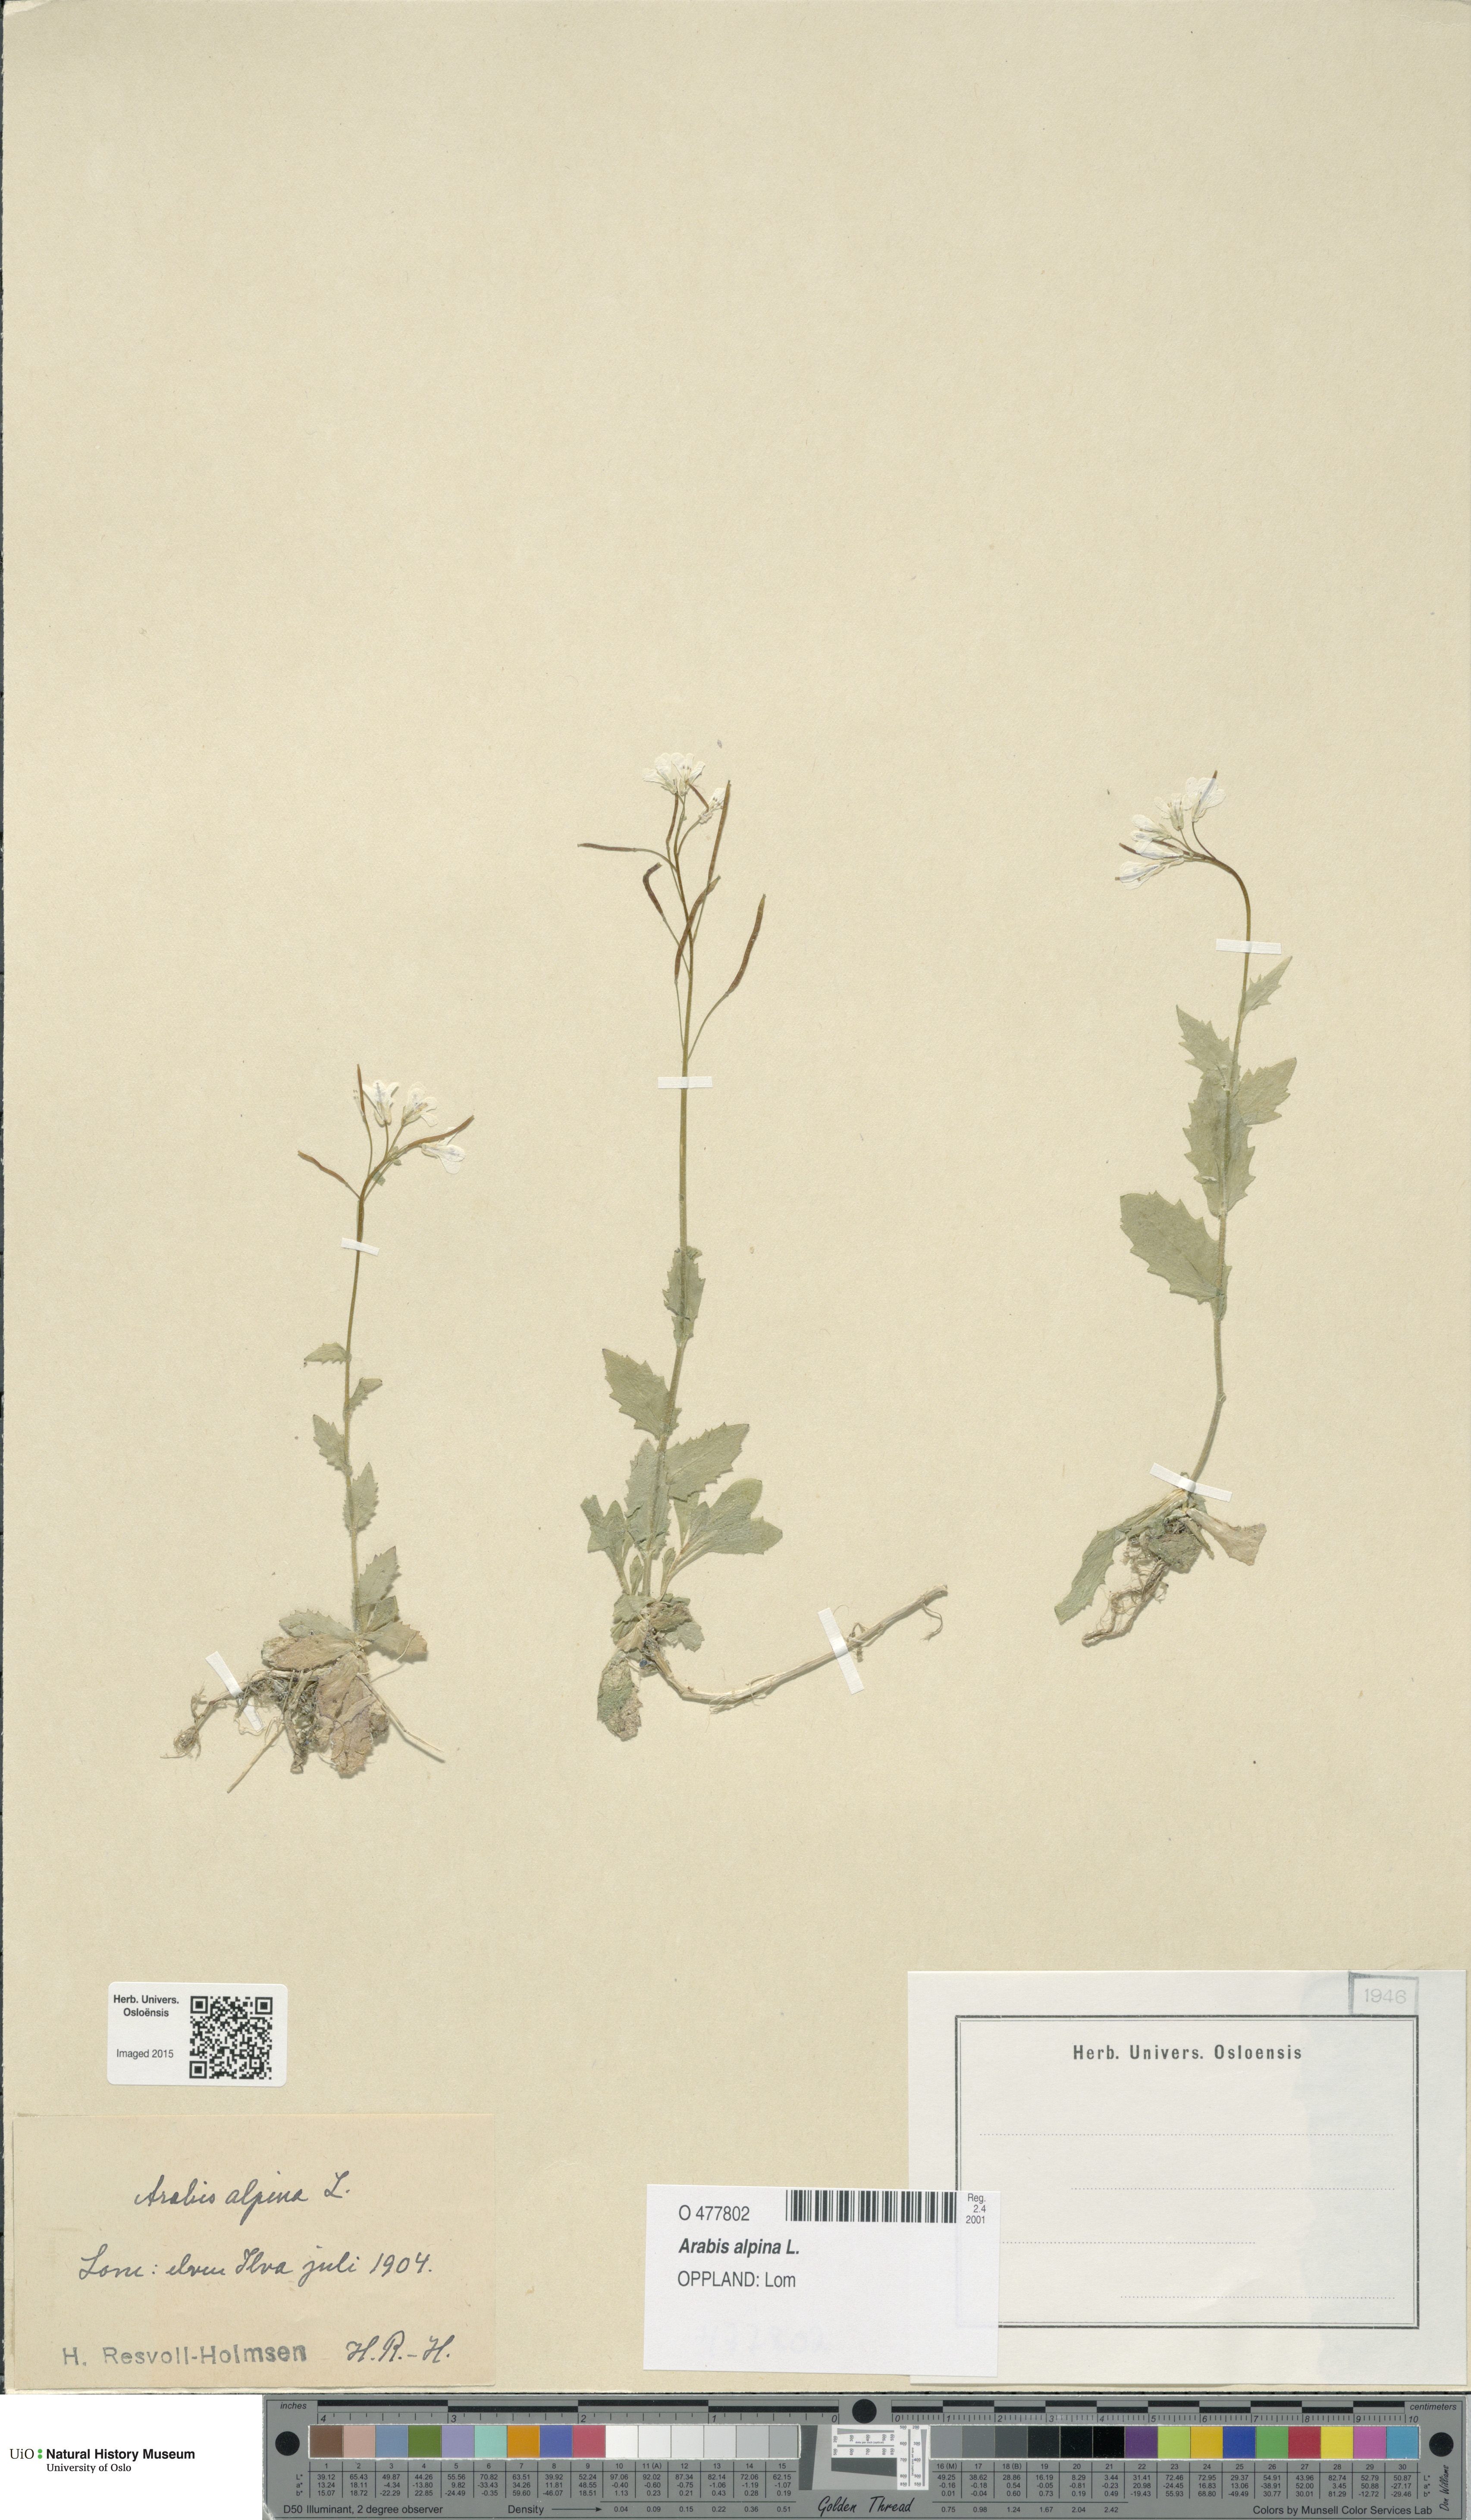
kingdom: Plantae
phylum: Tracheophyta
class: Magnoliopsida
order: Brassicales
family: Brassicaceae
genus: Arabis
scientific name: Arabis alpina
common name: Alpine rock-cress
